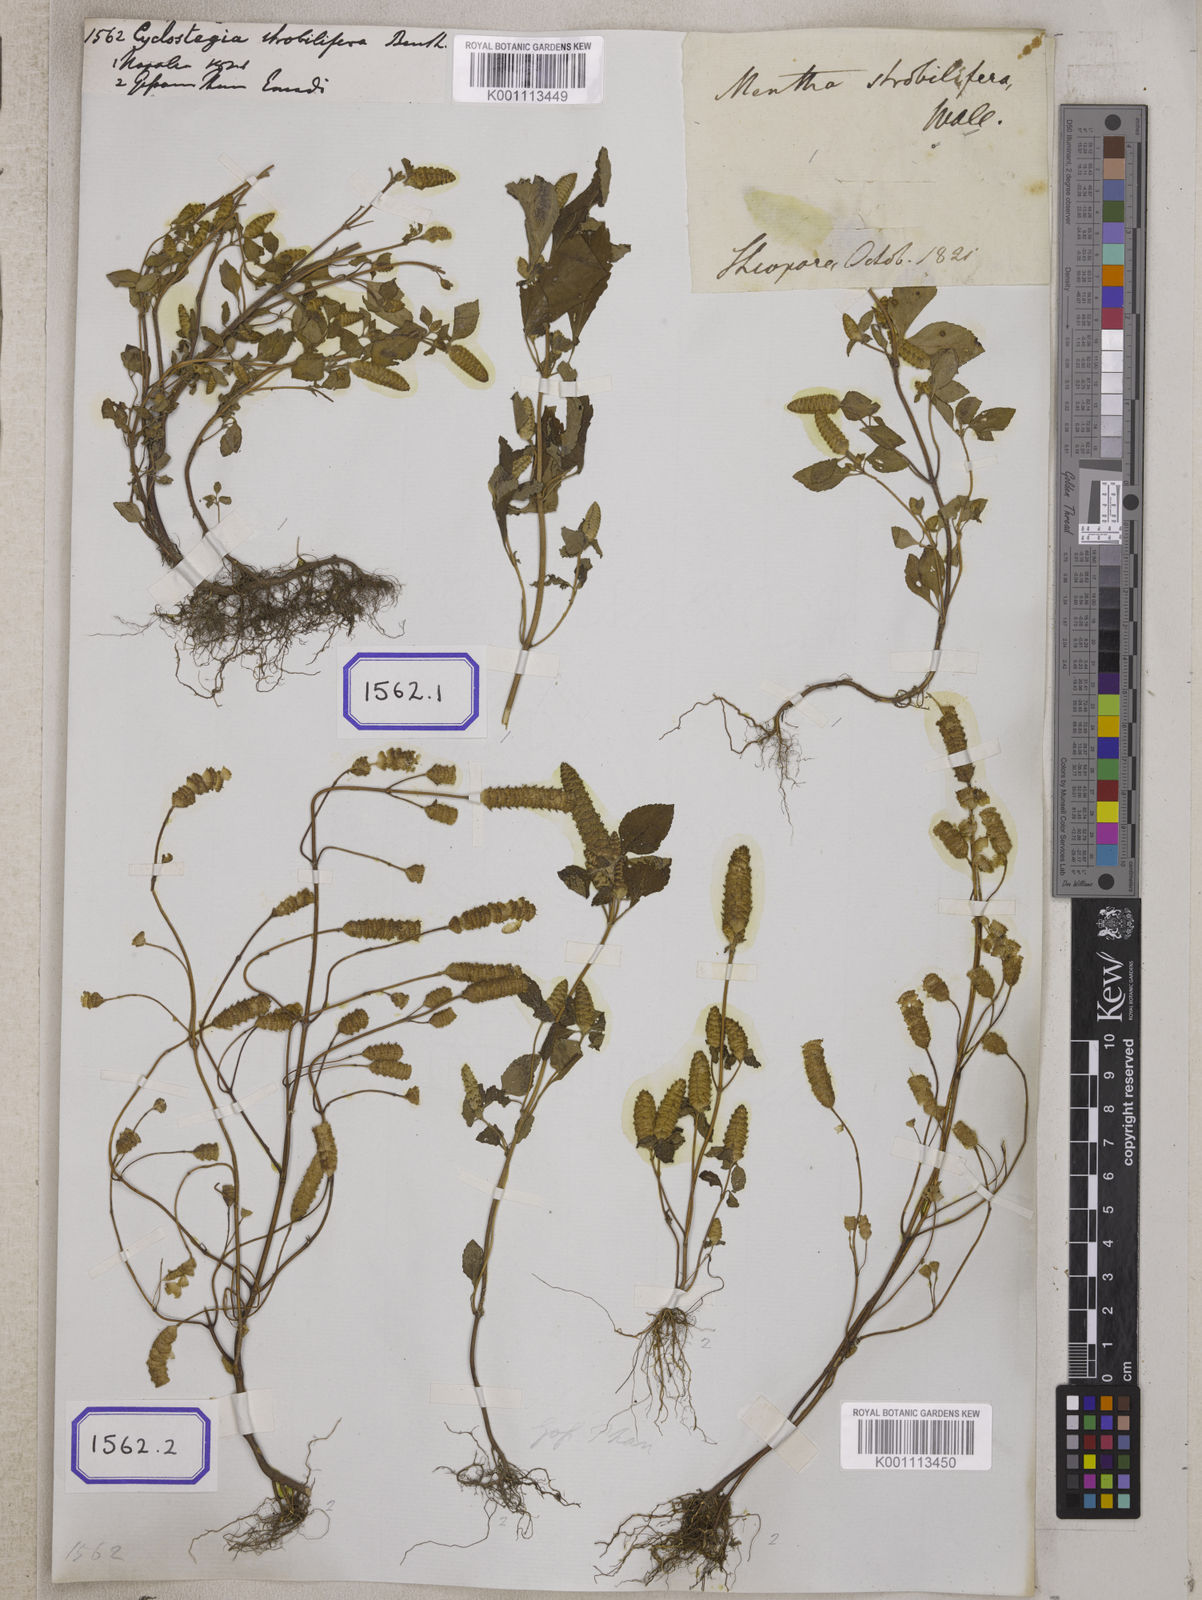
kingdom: Plantae
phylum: Tracheophyta
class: Magnoliopsida
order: Lamiales
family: Lamiaceae
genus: Elsholtzia
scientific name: Elsholtzia strobilifera
